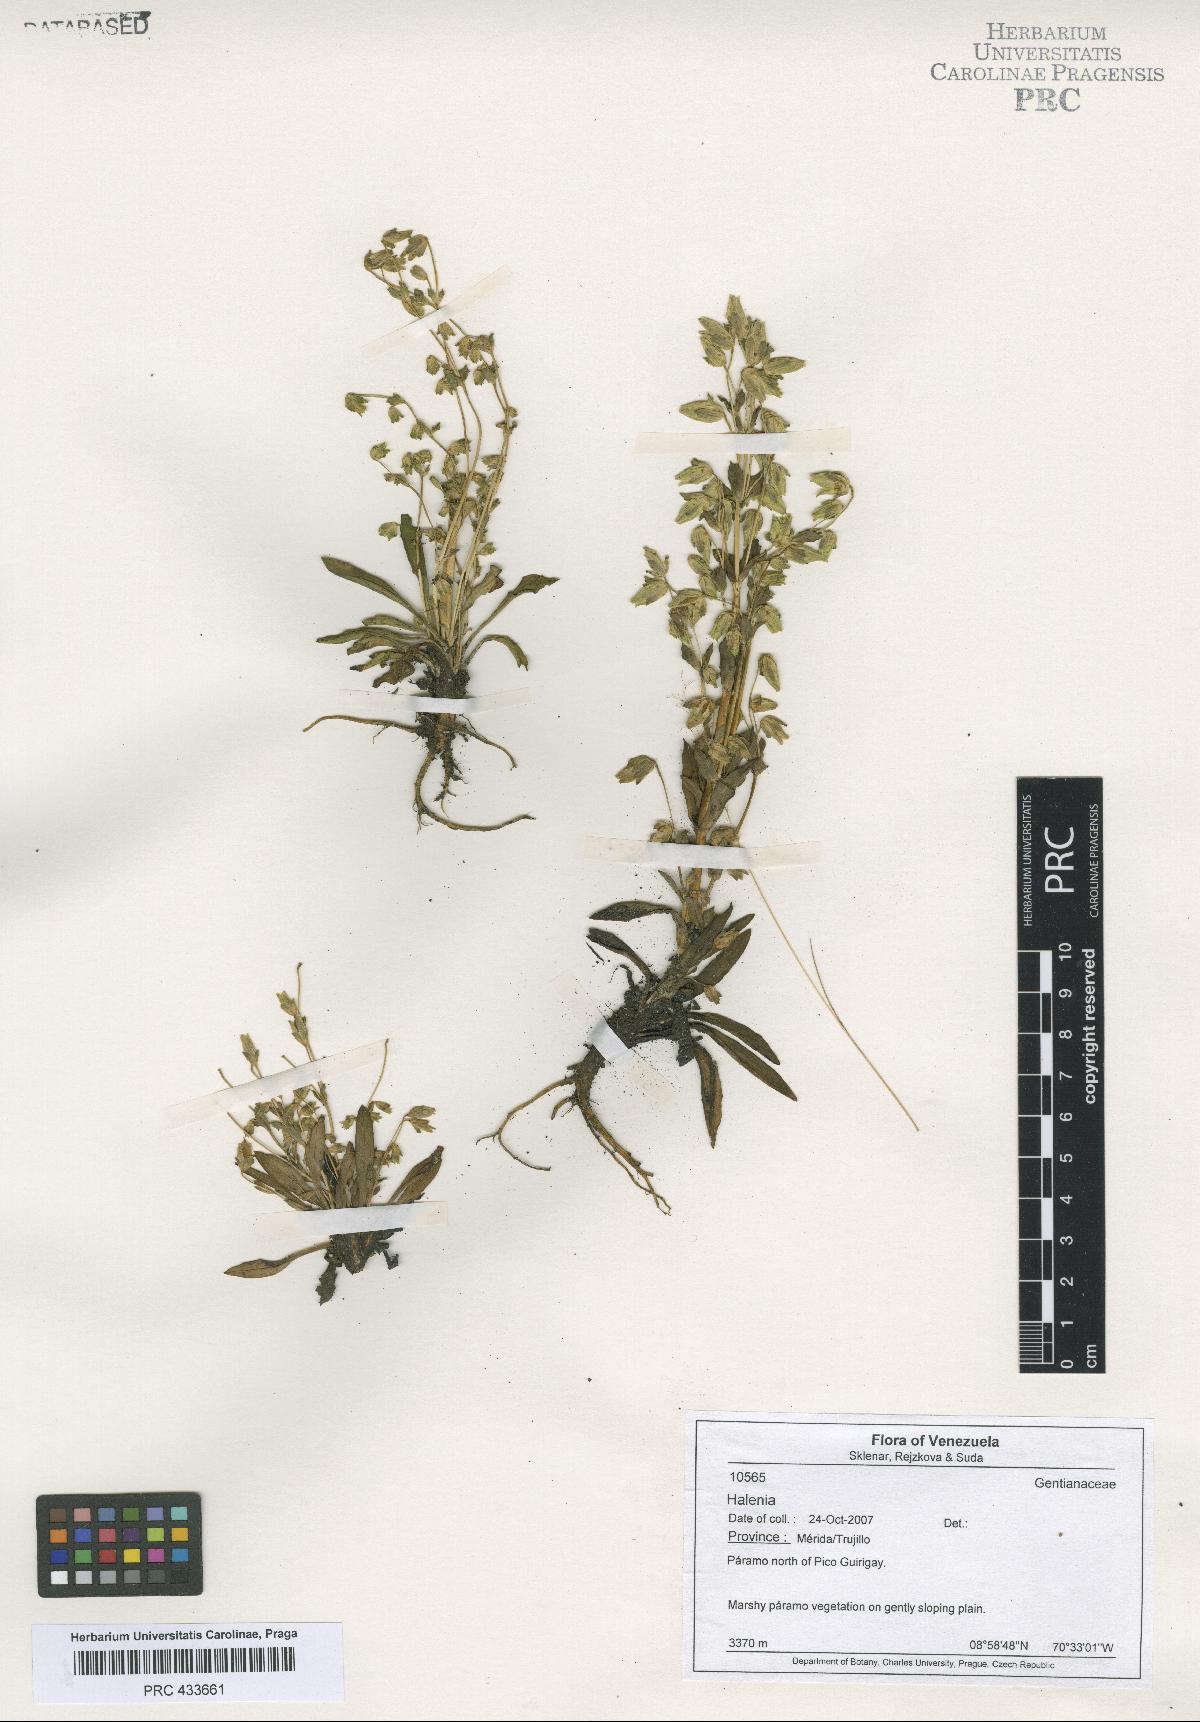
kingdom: Plantae
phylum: Tracheophyta
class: Magnoliopsida
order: Gentianales
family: Gentianaceae
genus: Halenia
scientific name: Halenia
